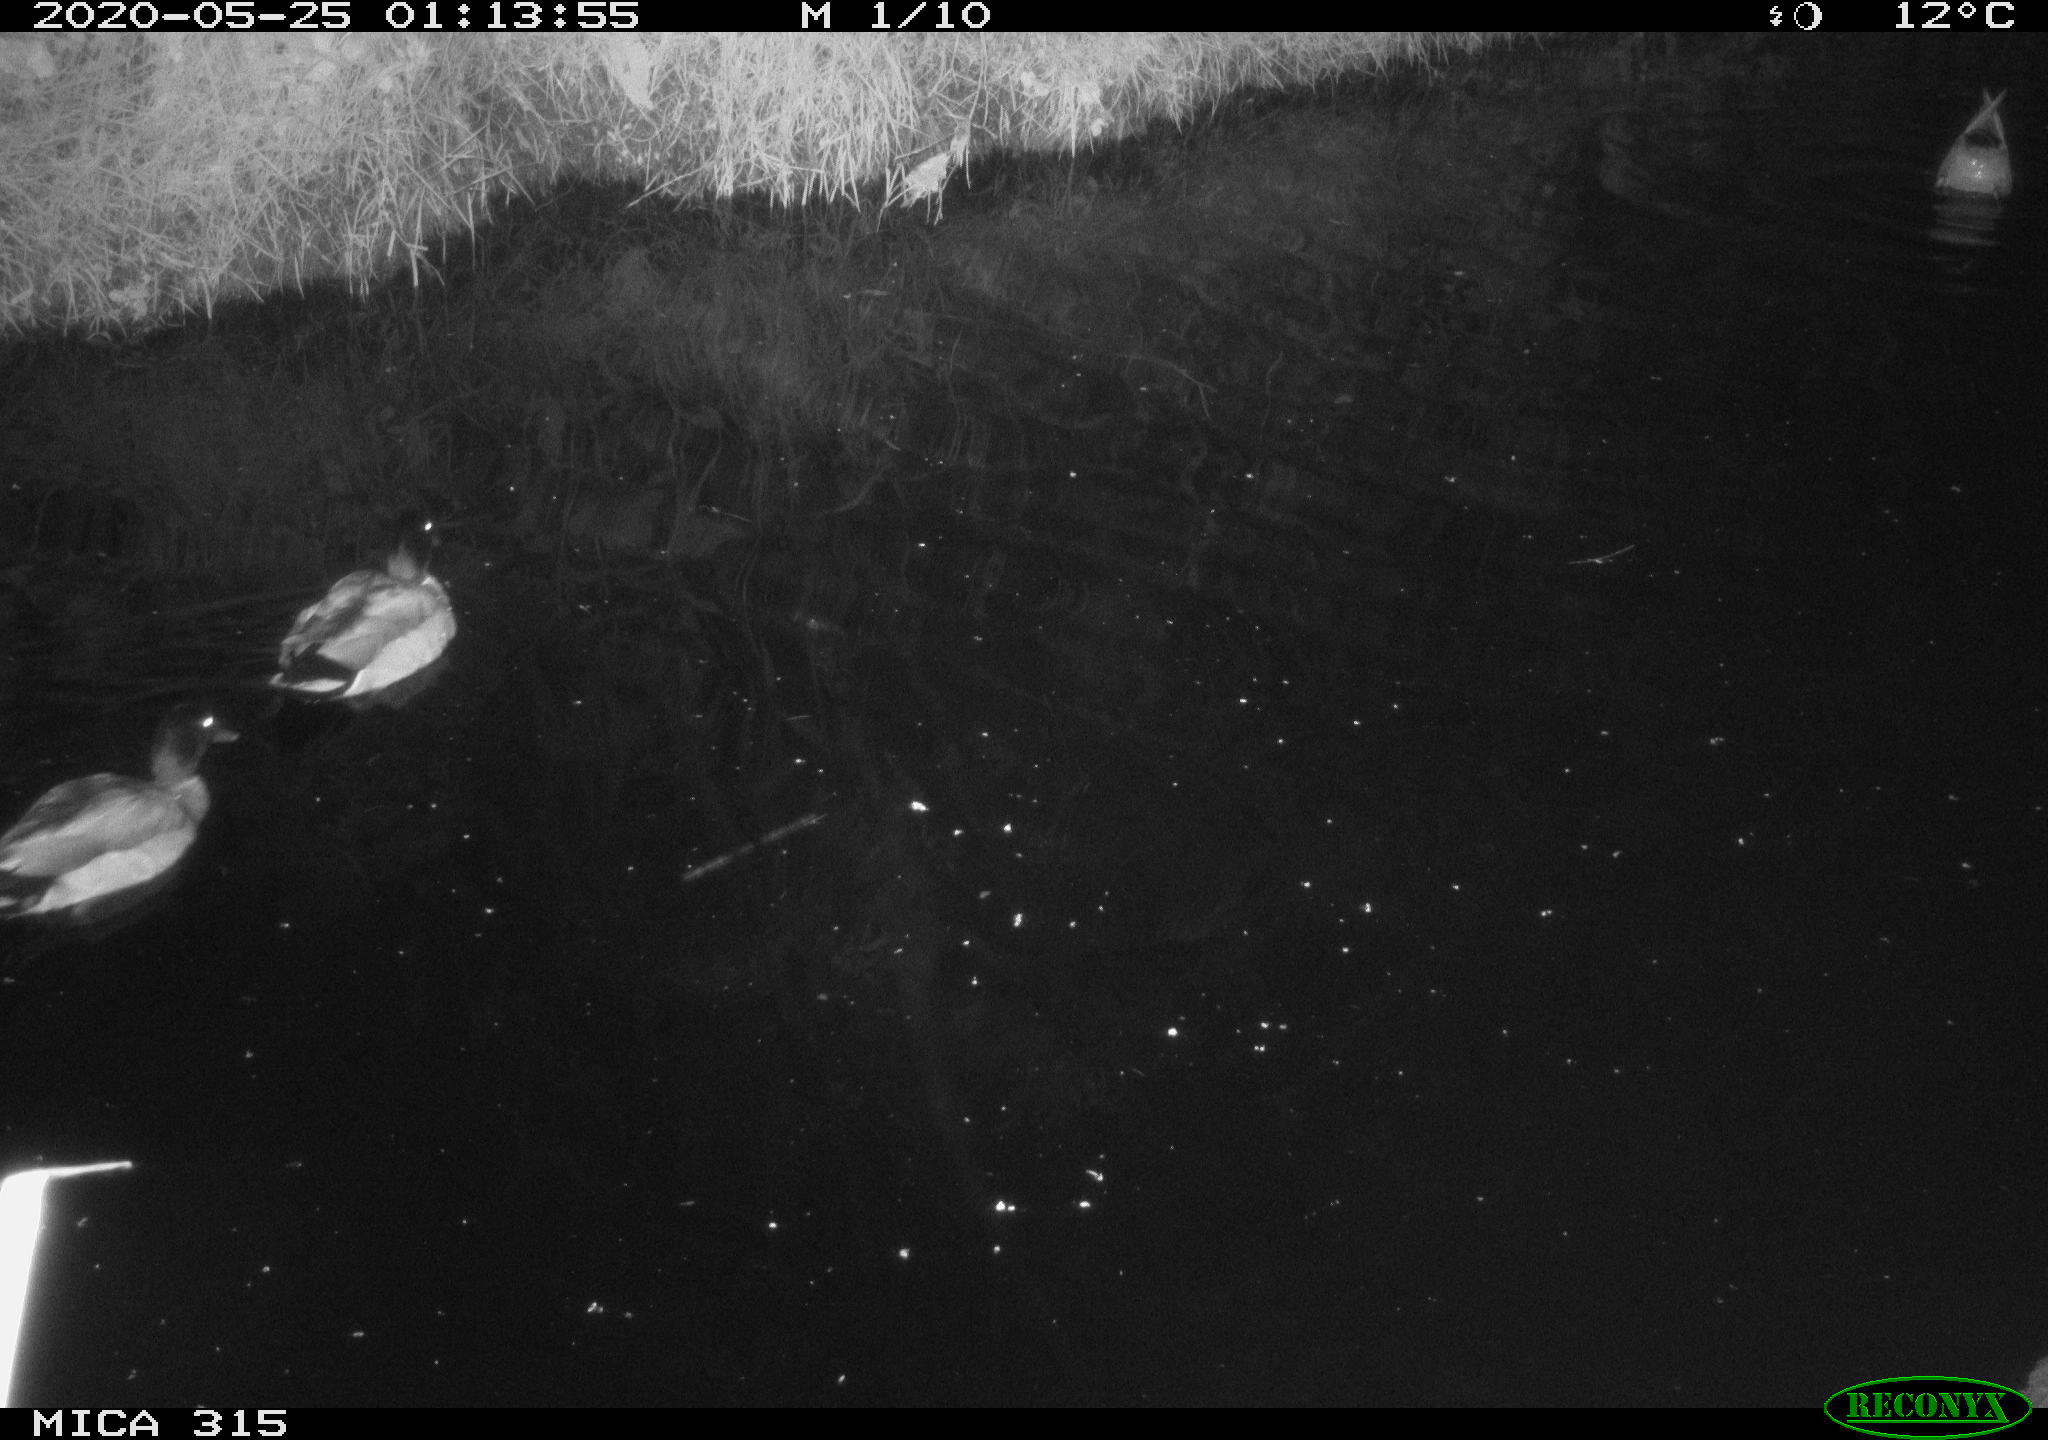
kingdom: Animalia
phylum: Chordata
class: Aves
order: Anseriformes
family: Anatidae
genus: Anas
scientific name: Anas platyrhynchos
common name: Mallard
